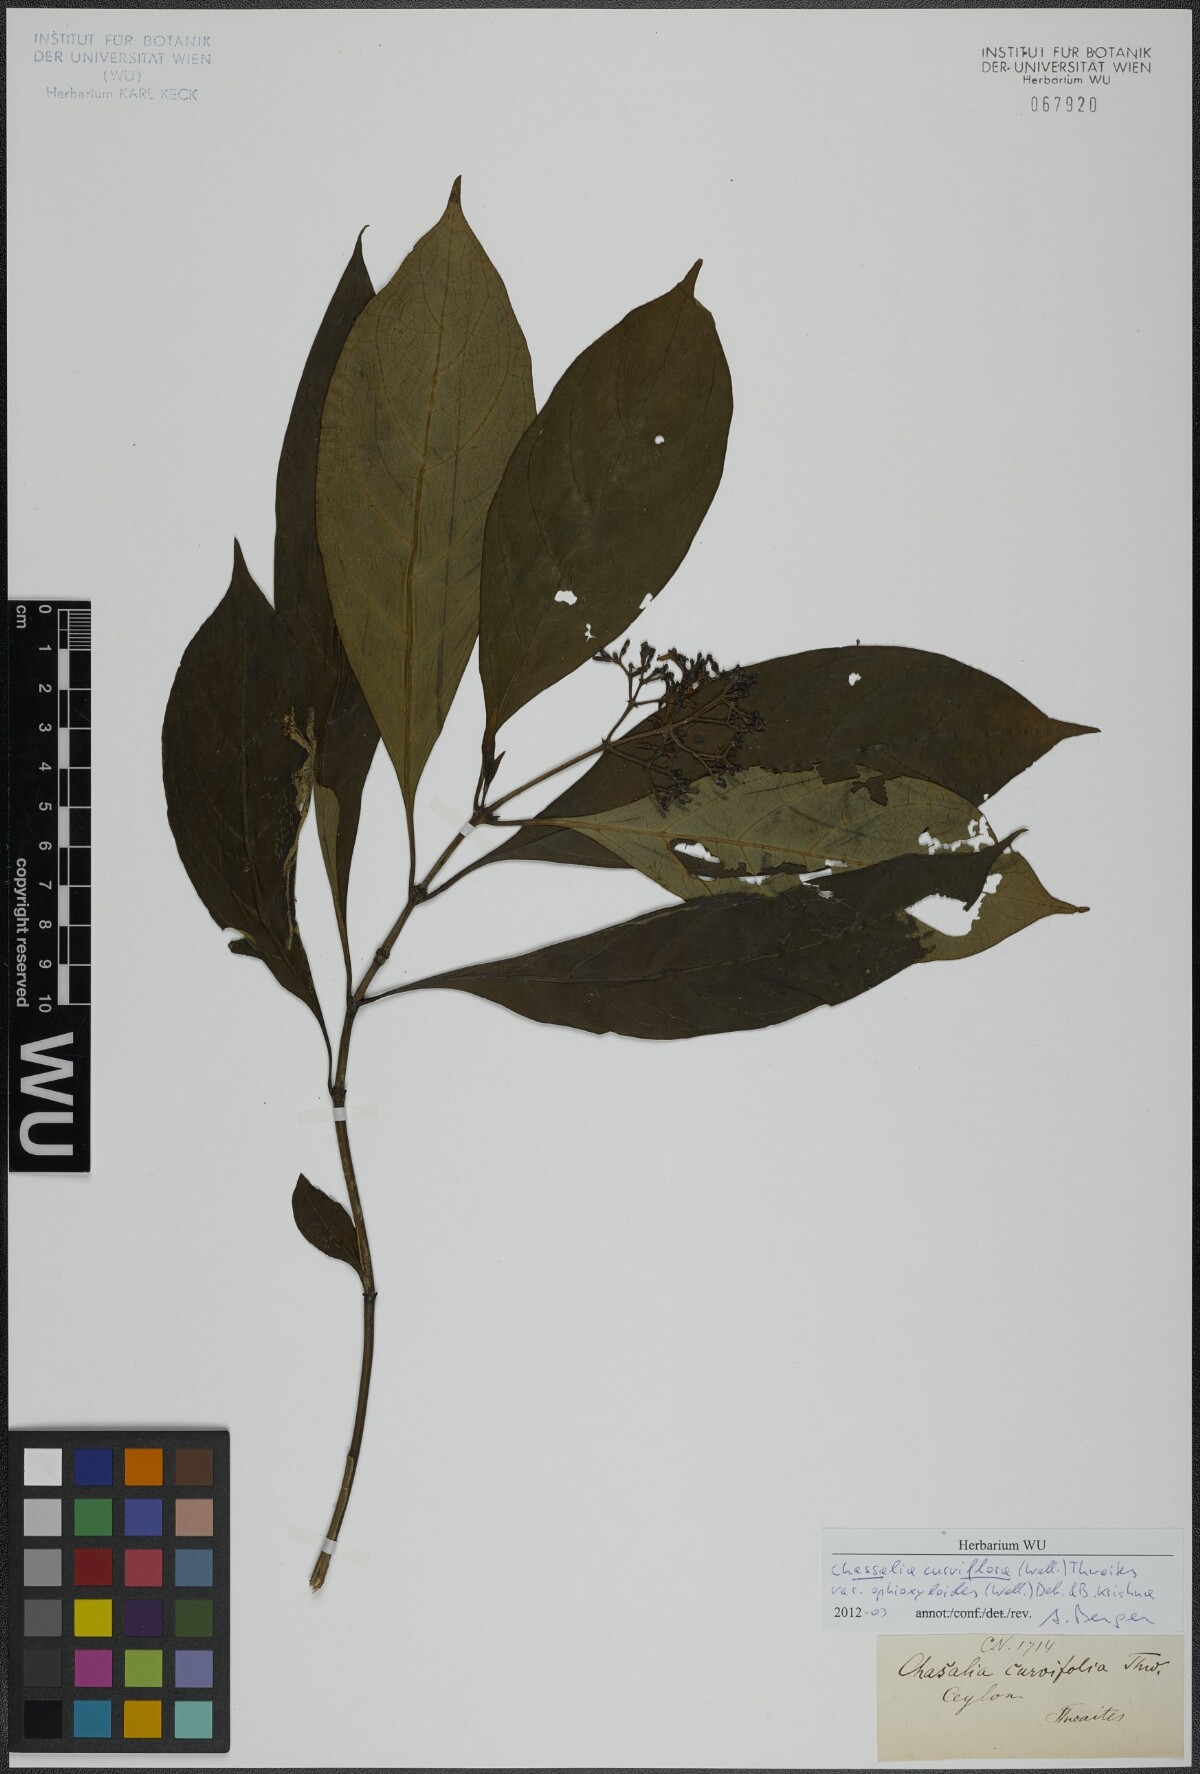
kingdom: Plantae
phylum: Tracheophyta
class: Magnoliopsida
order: Gentianales
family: Rubiaceae
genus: Chassalia
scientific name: Chassalia curviflora
